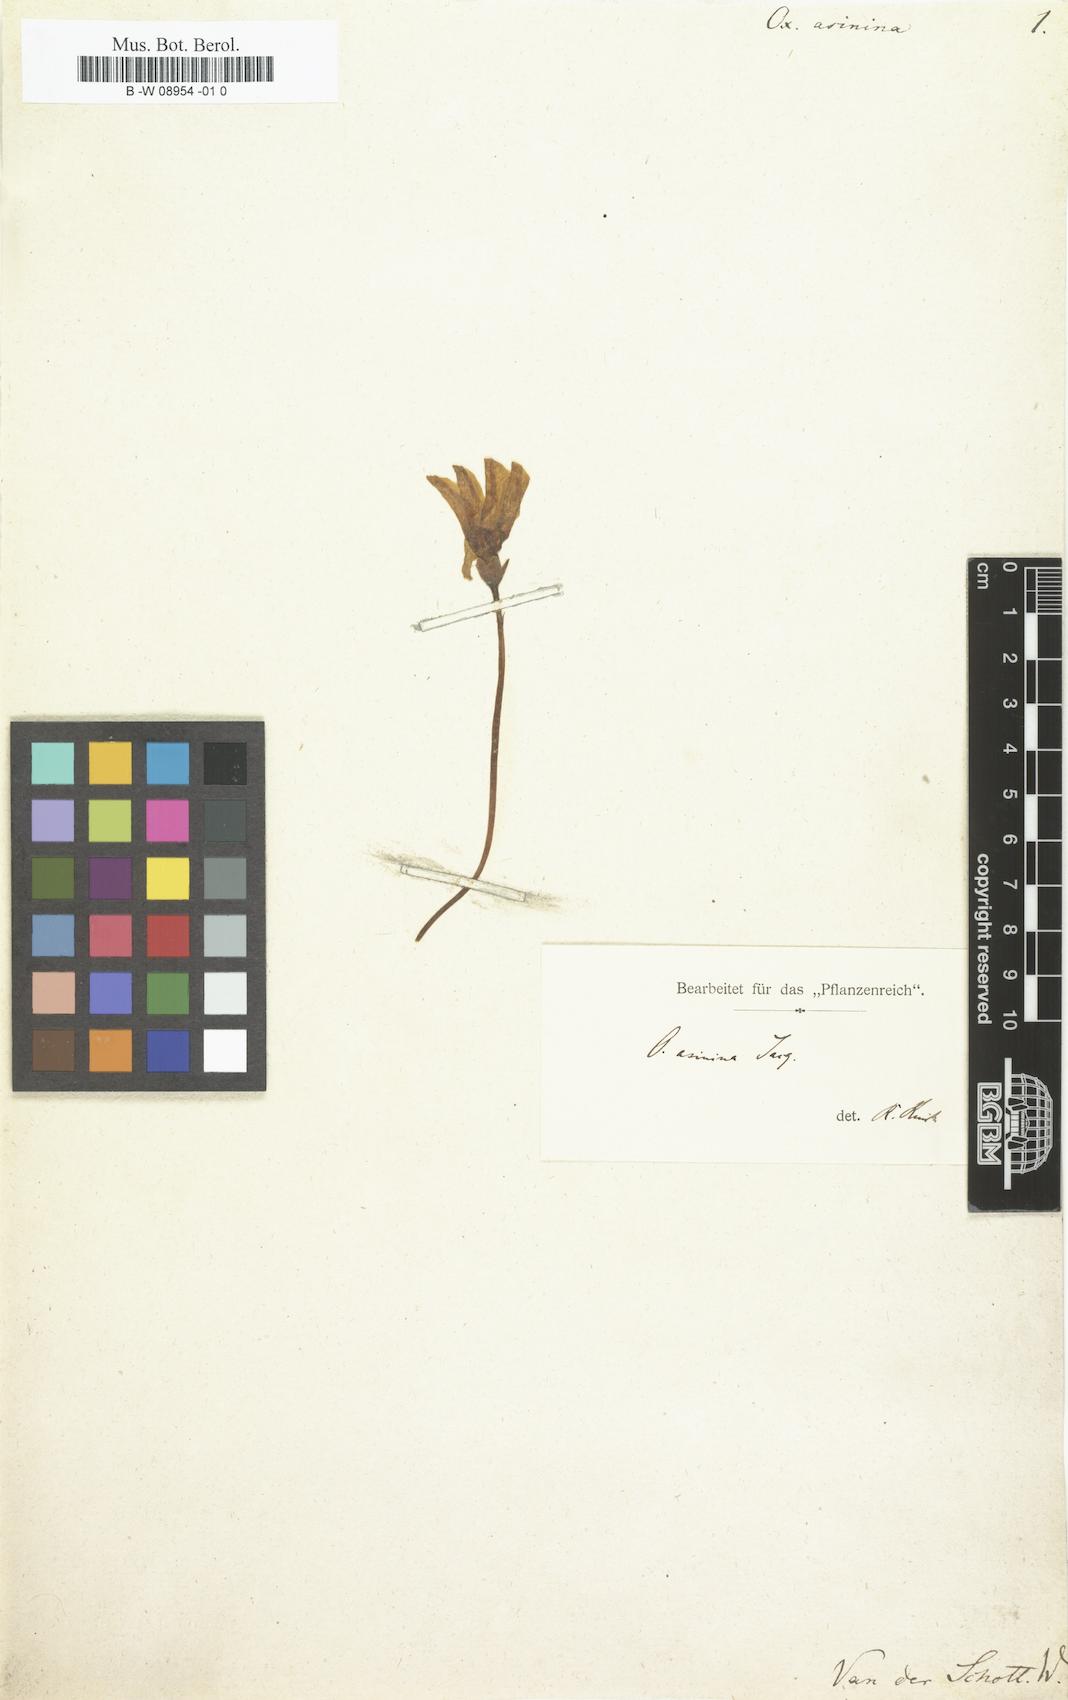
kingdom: Plantae
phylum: Tracheophyta
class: Magnoliopsida
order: Oxalidales
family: Oxalidaceae
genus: Oxalis
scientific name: Oxalis flava
